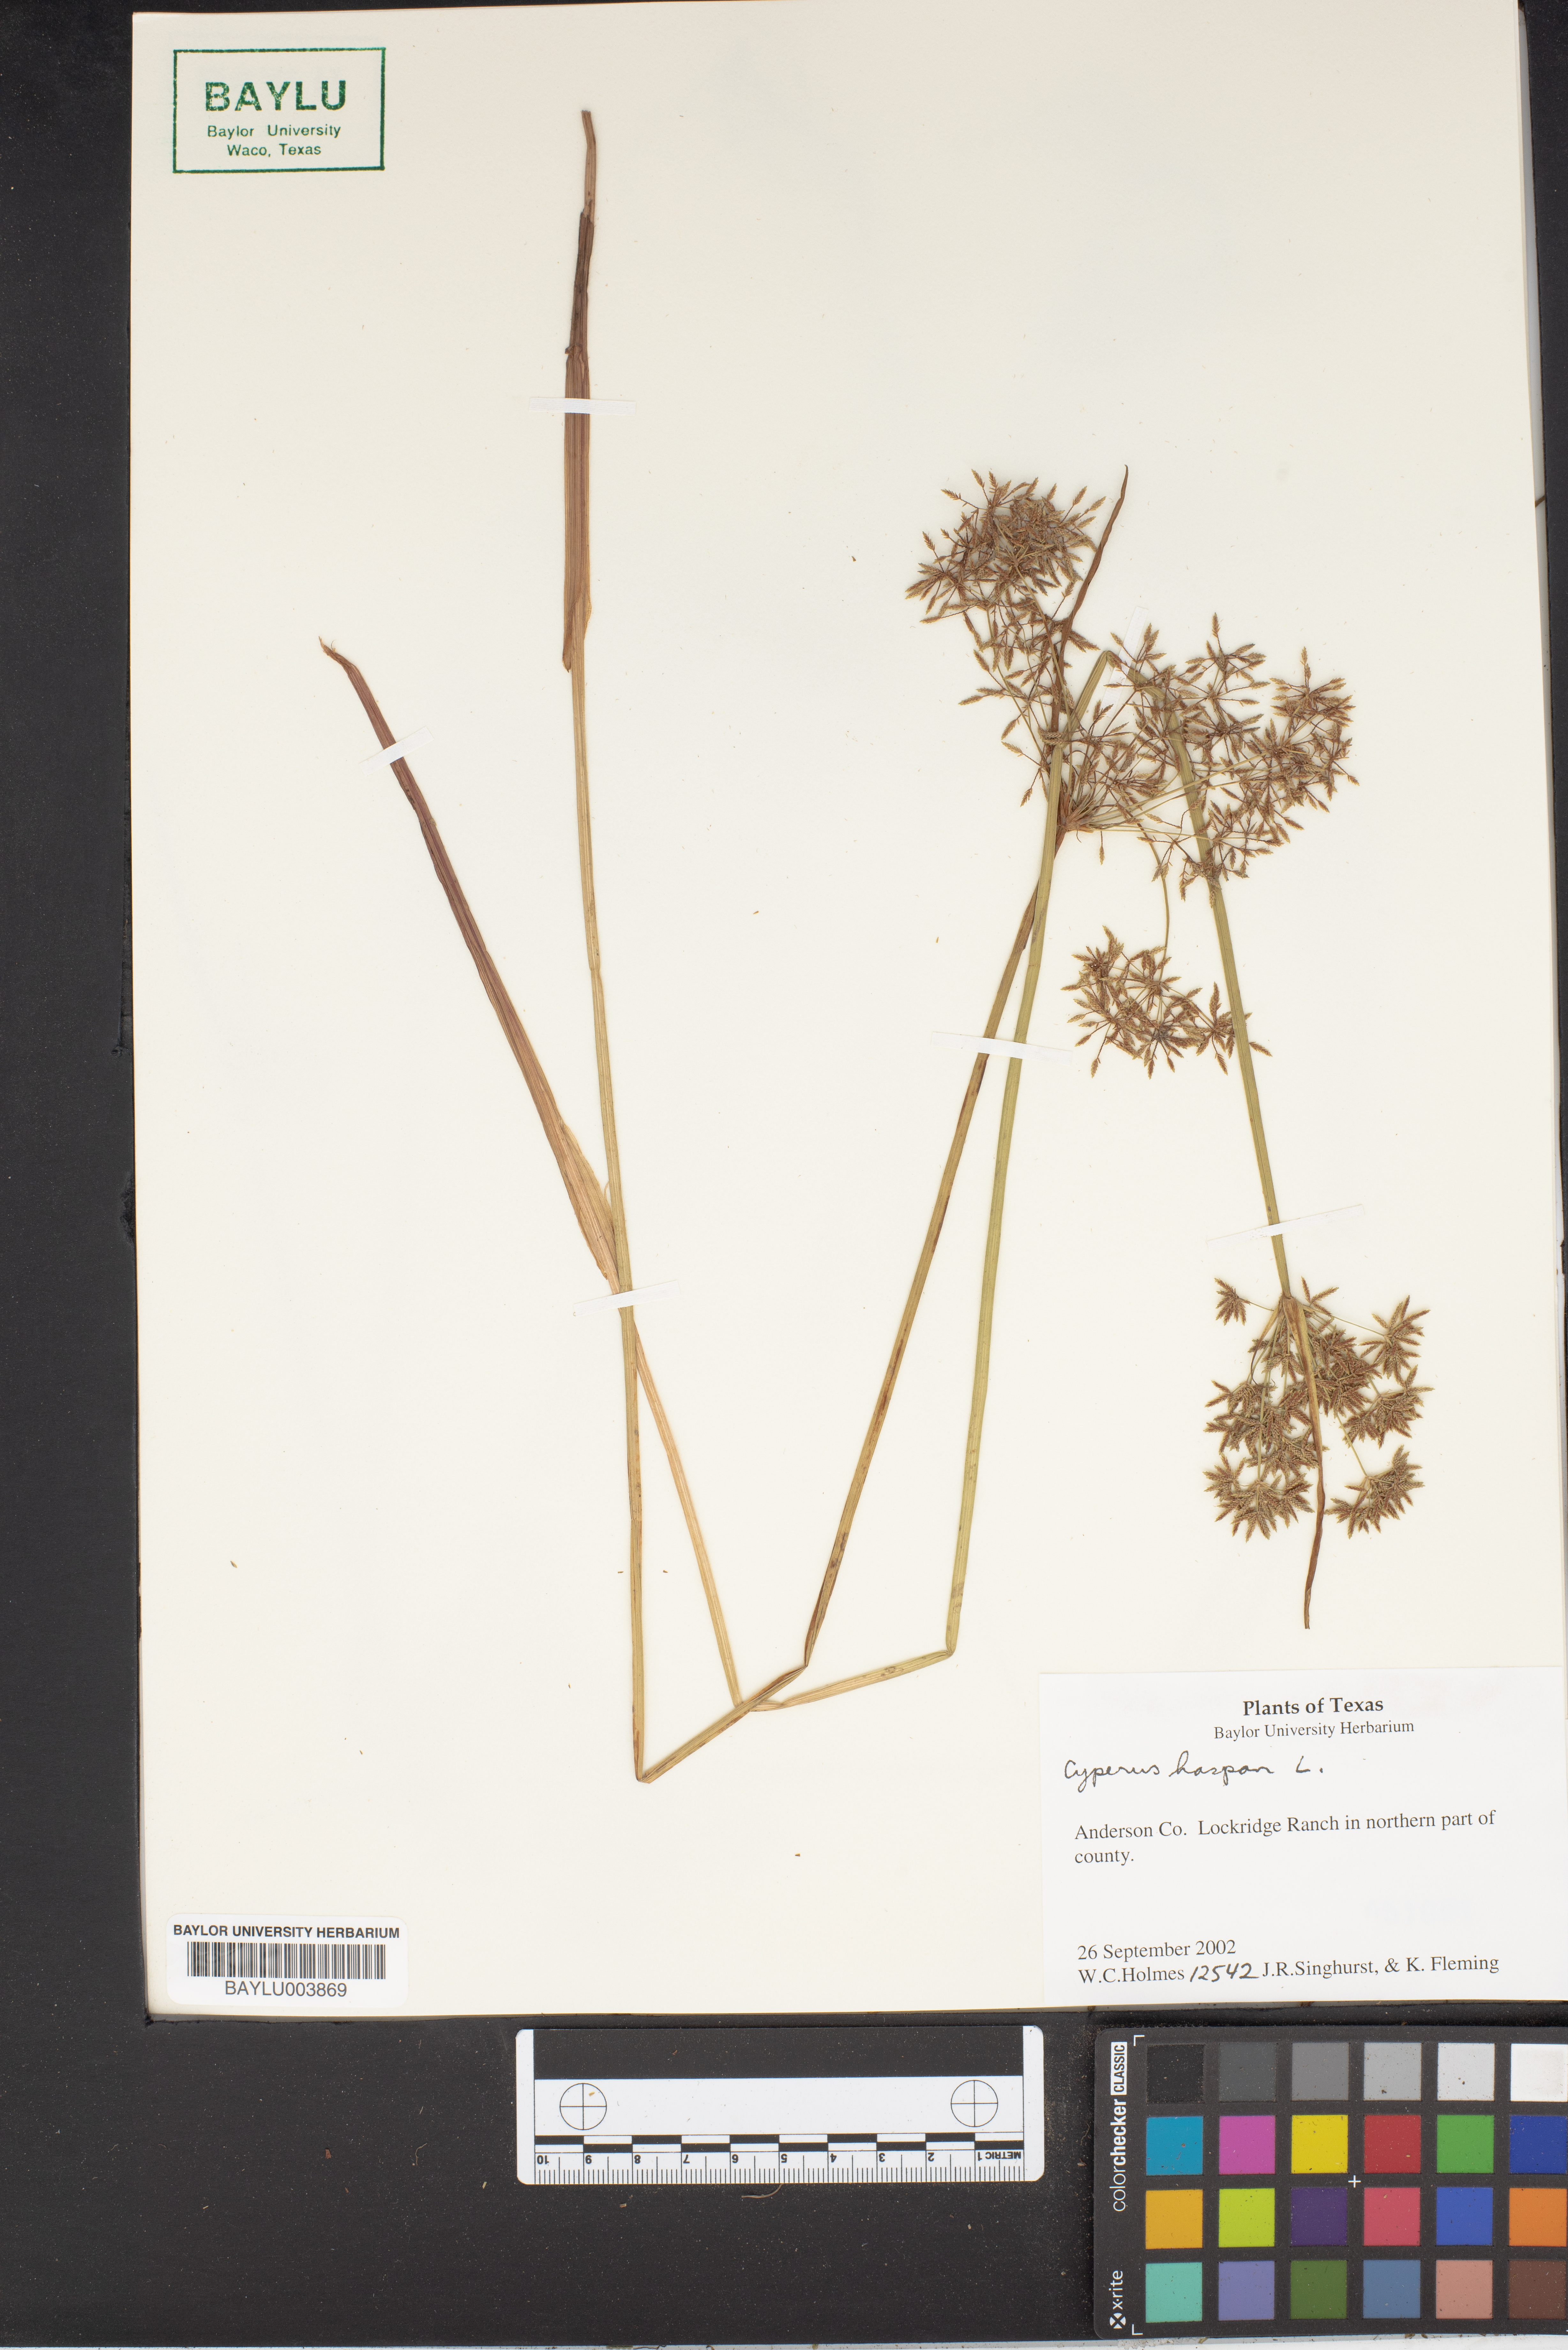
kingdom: Plantae
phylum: Tracheophyta
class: Liliopsida
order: Poales
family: Cyperaceae
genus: Cyperus
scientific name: Cyperus haspan
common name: Haspan flatsedge
